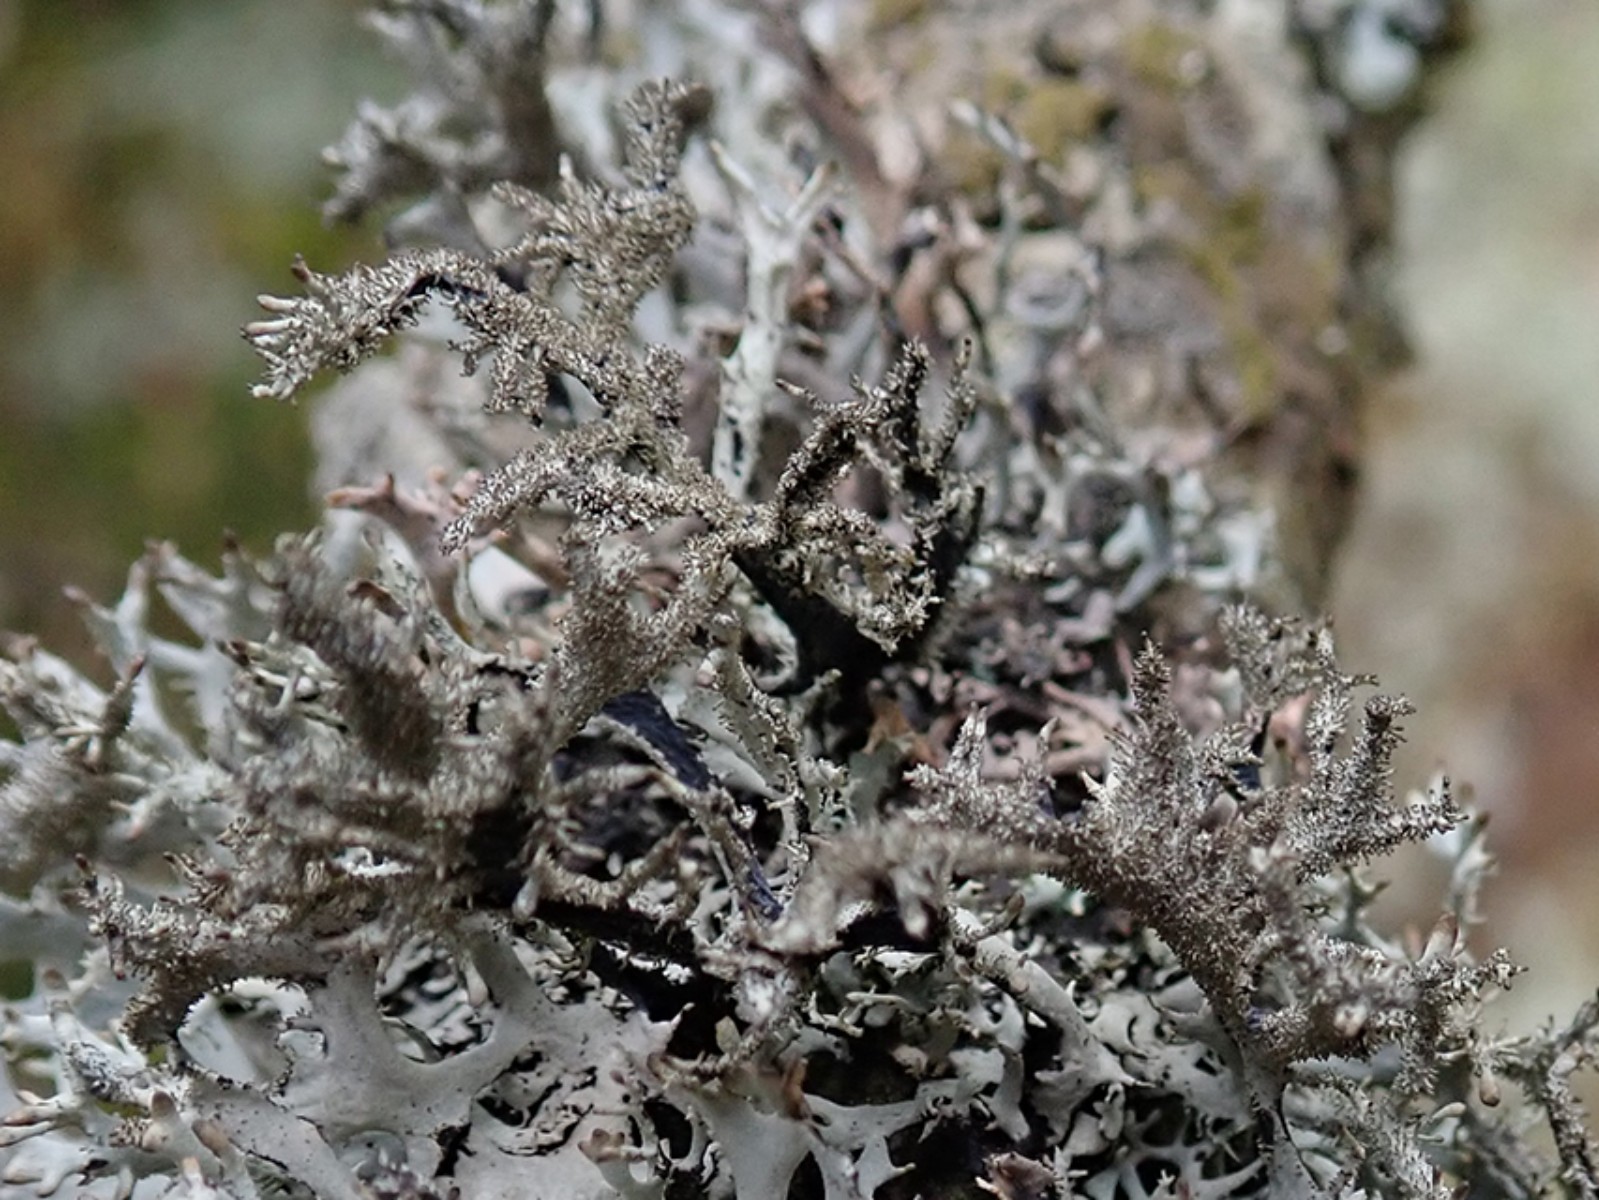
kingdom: Fungi
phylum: Ascomycota
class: Lecanoromycetes
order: Lecanorales
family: Parmeliaceae
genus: Pseudevernia
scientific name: Pseudevernia furfuracea
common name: grå fyrrelav
